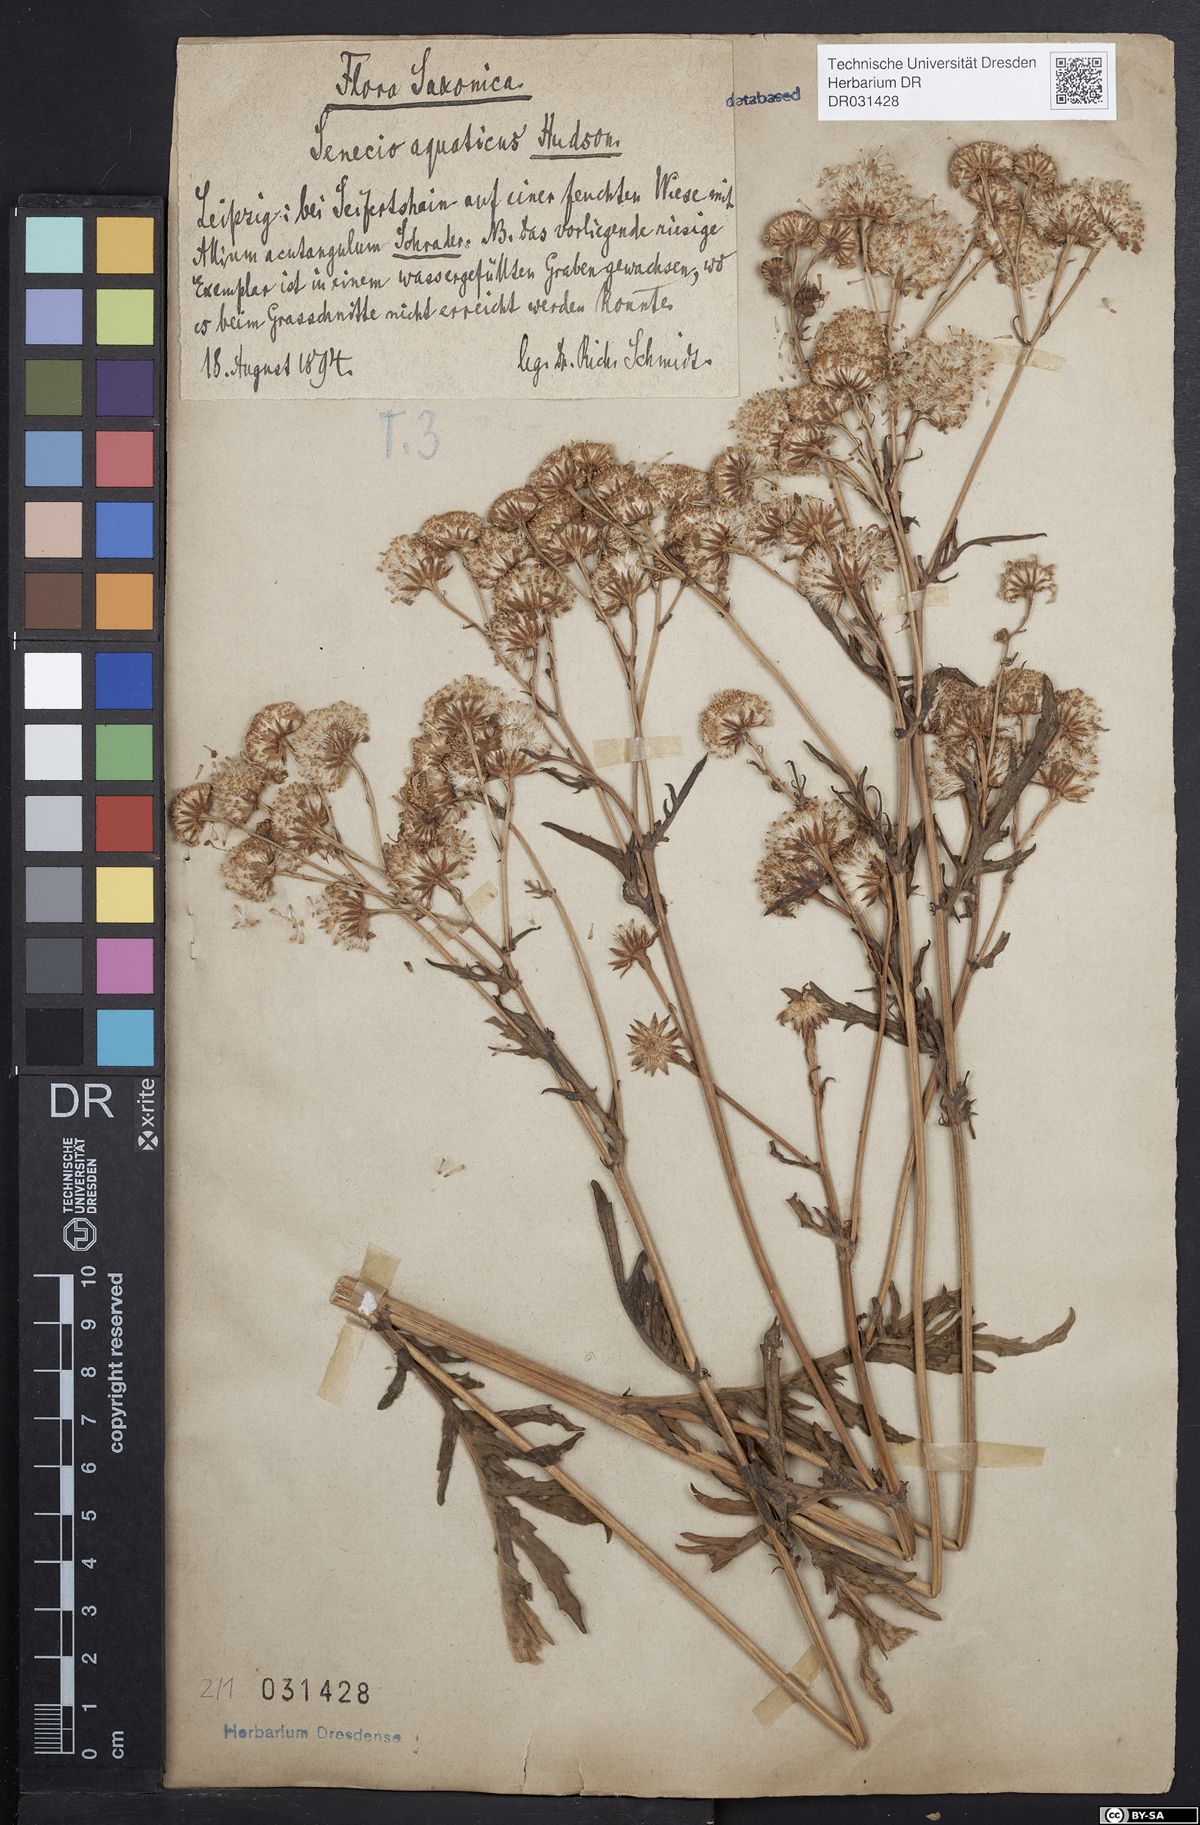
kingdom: Plantae
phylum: Tracheophyta
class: Magnoliopsida
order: Asterales
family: Asteraceae
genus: Jacobaea
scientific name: Jacobaea aquatica
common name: Water ragwort
